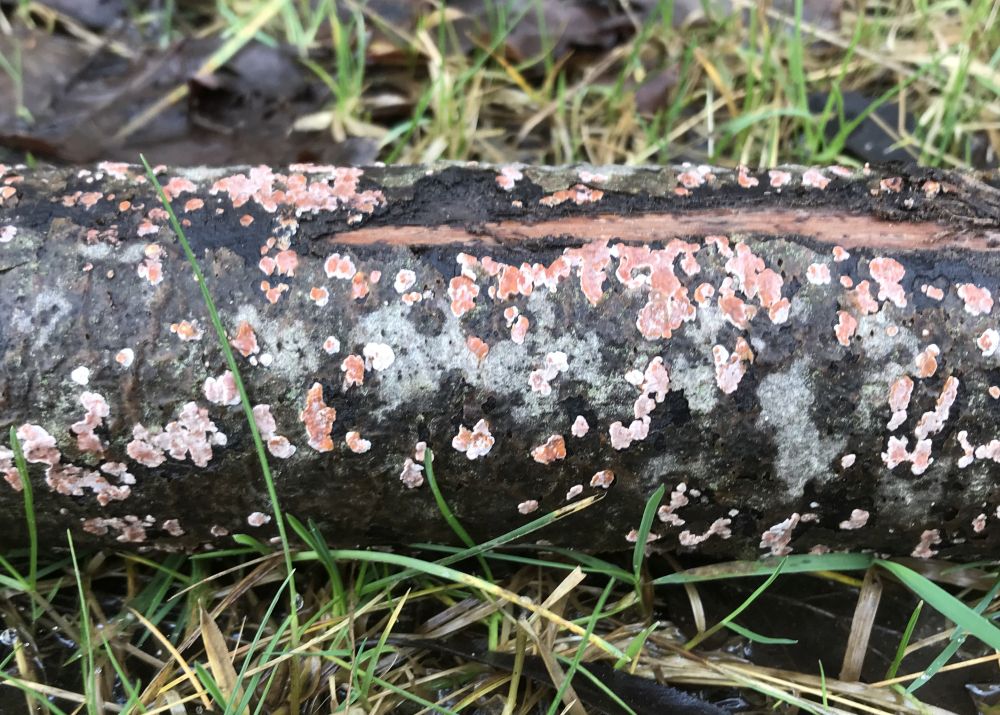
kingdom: Fungi
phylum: Basidiomycota
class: Agaricomycetes
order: Russulales
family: Peniophoraceae
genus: Peniophora
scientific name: Peniophora polygonia
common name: polygon-voksskind
